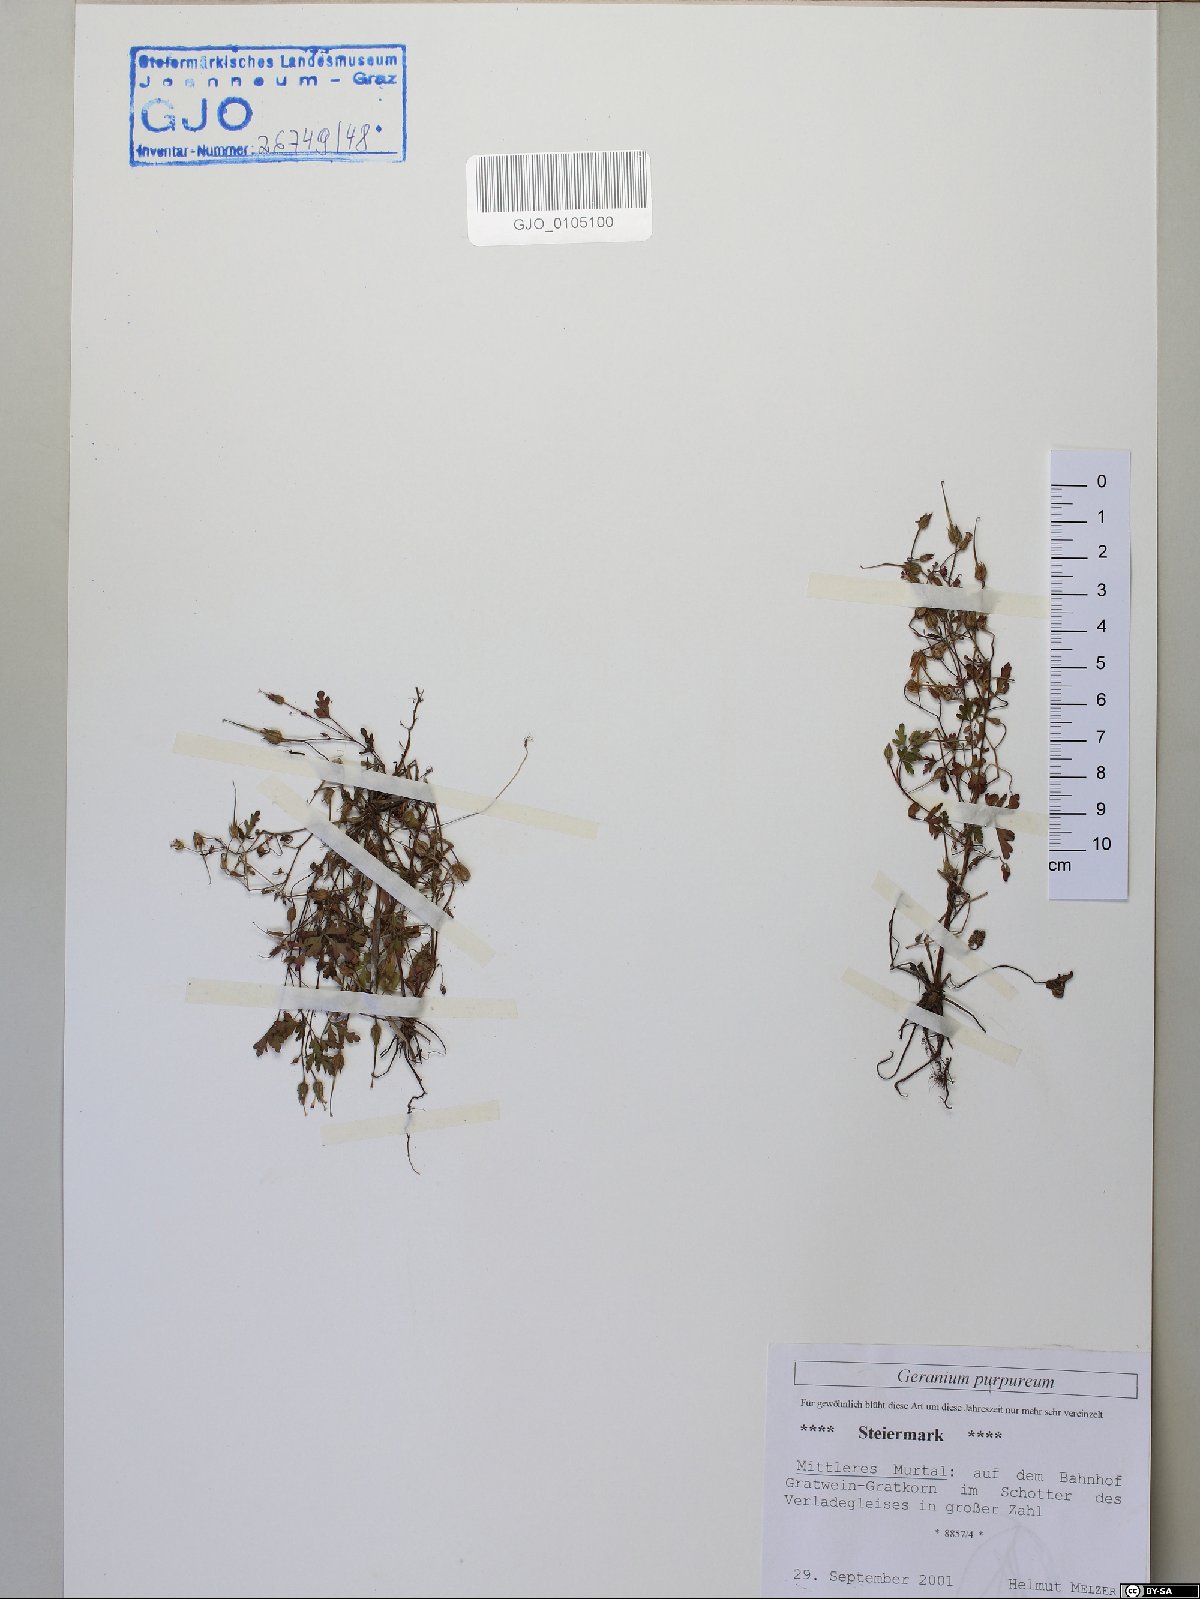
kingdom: Plantae
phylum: Tracheophyta
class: Magnoliopsida
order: Geraniales
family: Geraniaceae
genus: Geranium
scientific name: Geranium purpureum
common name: Little-robin
